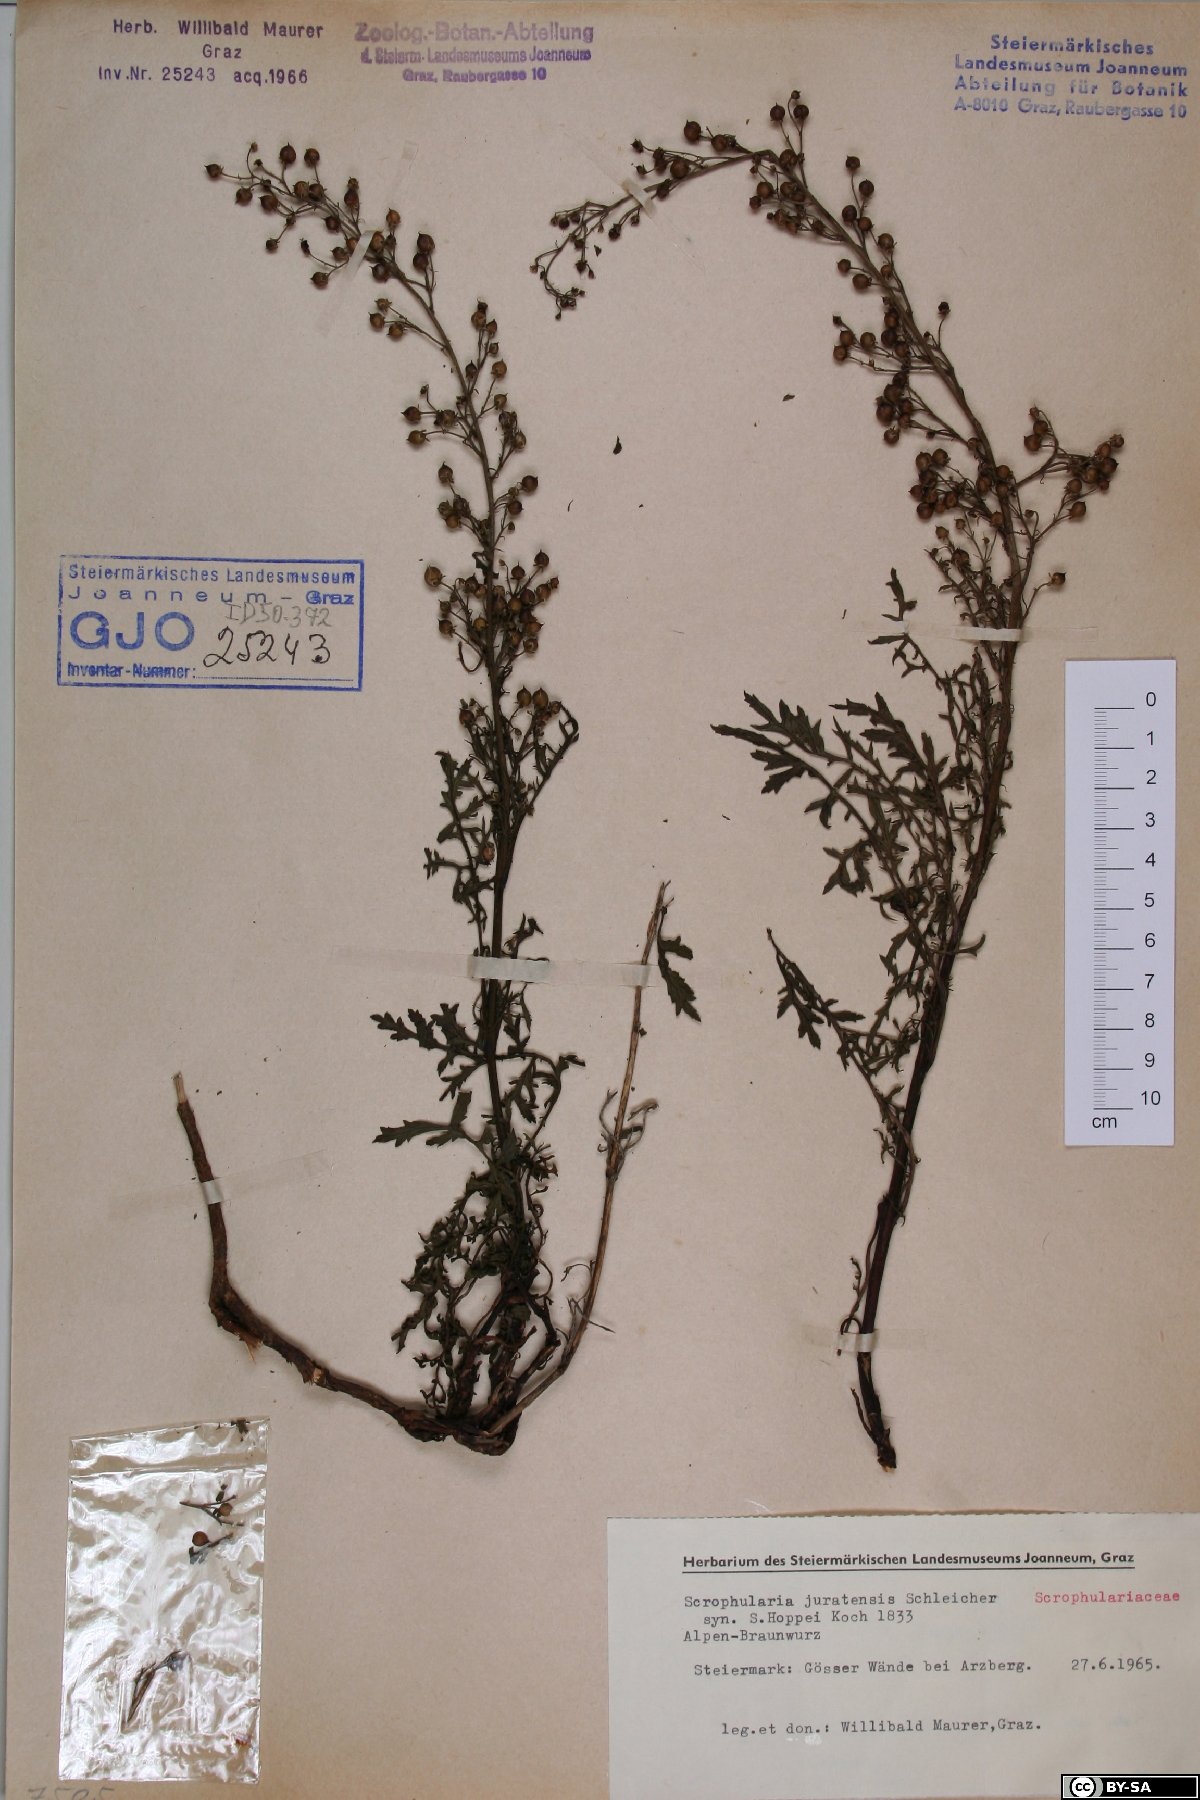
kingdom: Plantae
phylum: Tracheophyta
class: Magnoliopsida
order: Lamiales
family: Scrophulariaceae
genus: Scrophularia
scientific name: Scrophularia canina
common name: French figwort
